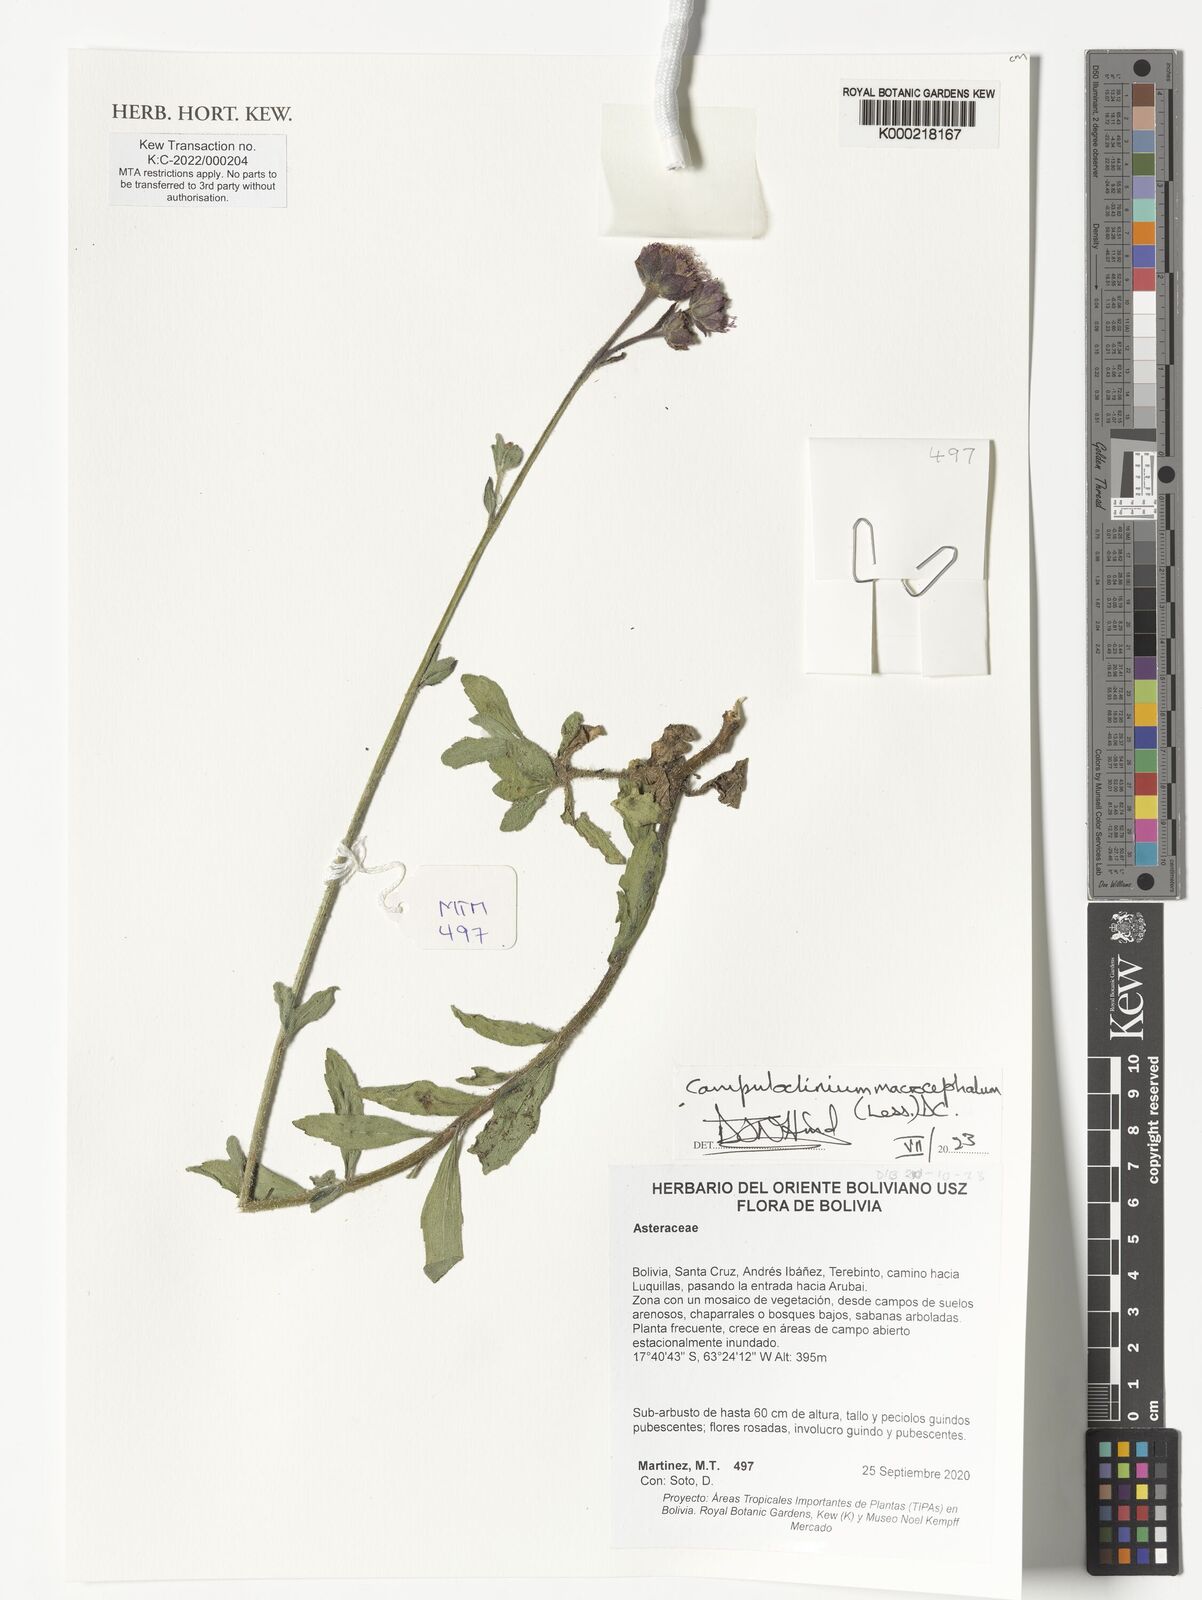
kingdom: Plantae
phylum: Tracheophyta
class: Magnoliopsida
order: Asterales
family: Asteraceae
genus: Campuloclinium
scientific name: Campuloclinium macrocephalum
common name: Pompomweed
